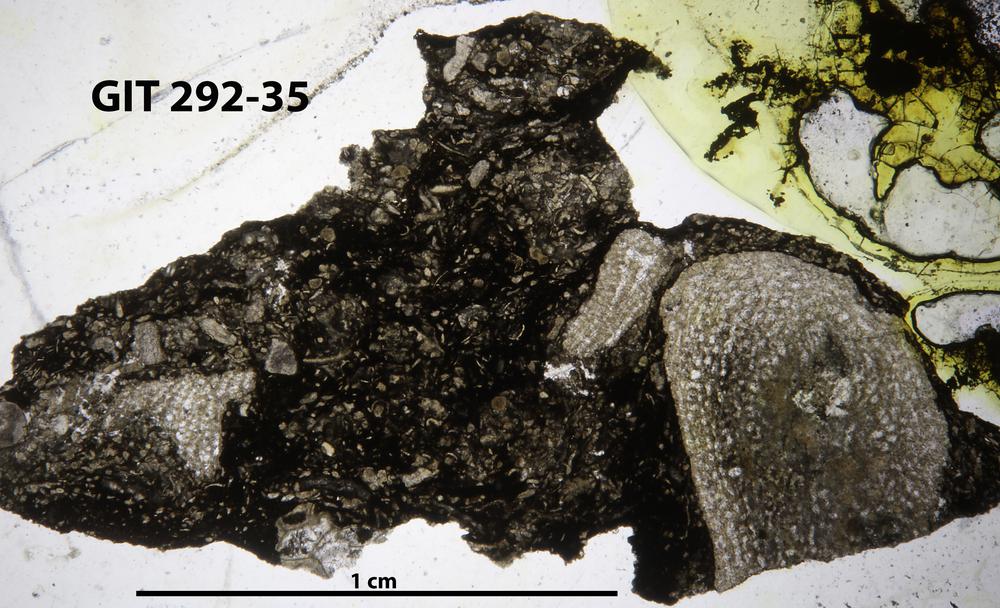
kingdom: Animalia
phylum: Porifera
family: Syringostromellidae
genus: Syringostromella
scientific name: Syringostromella
